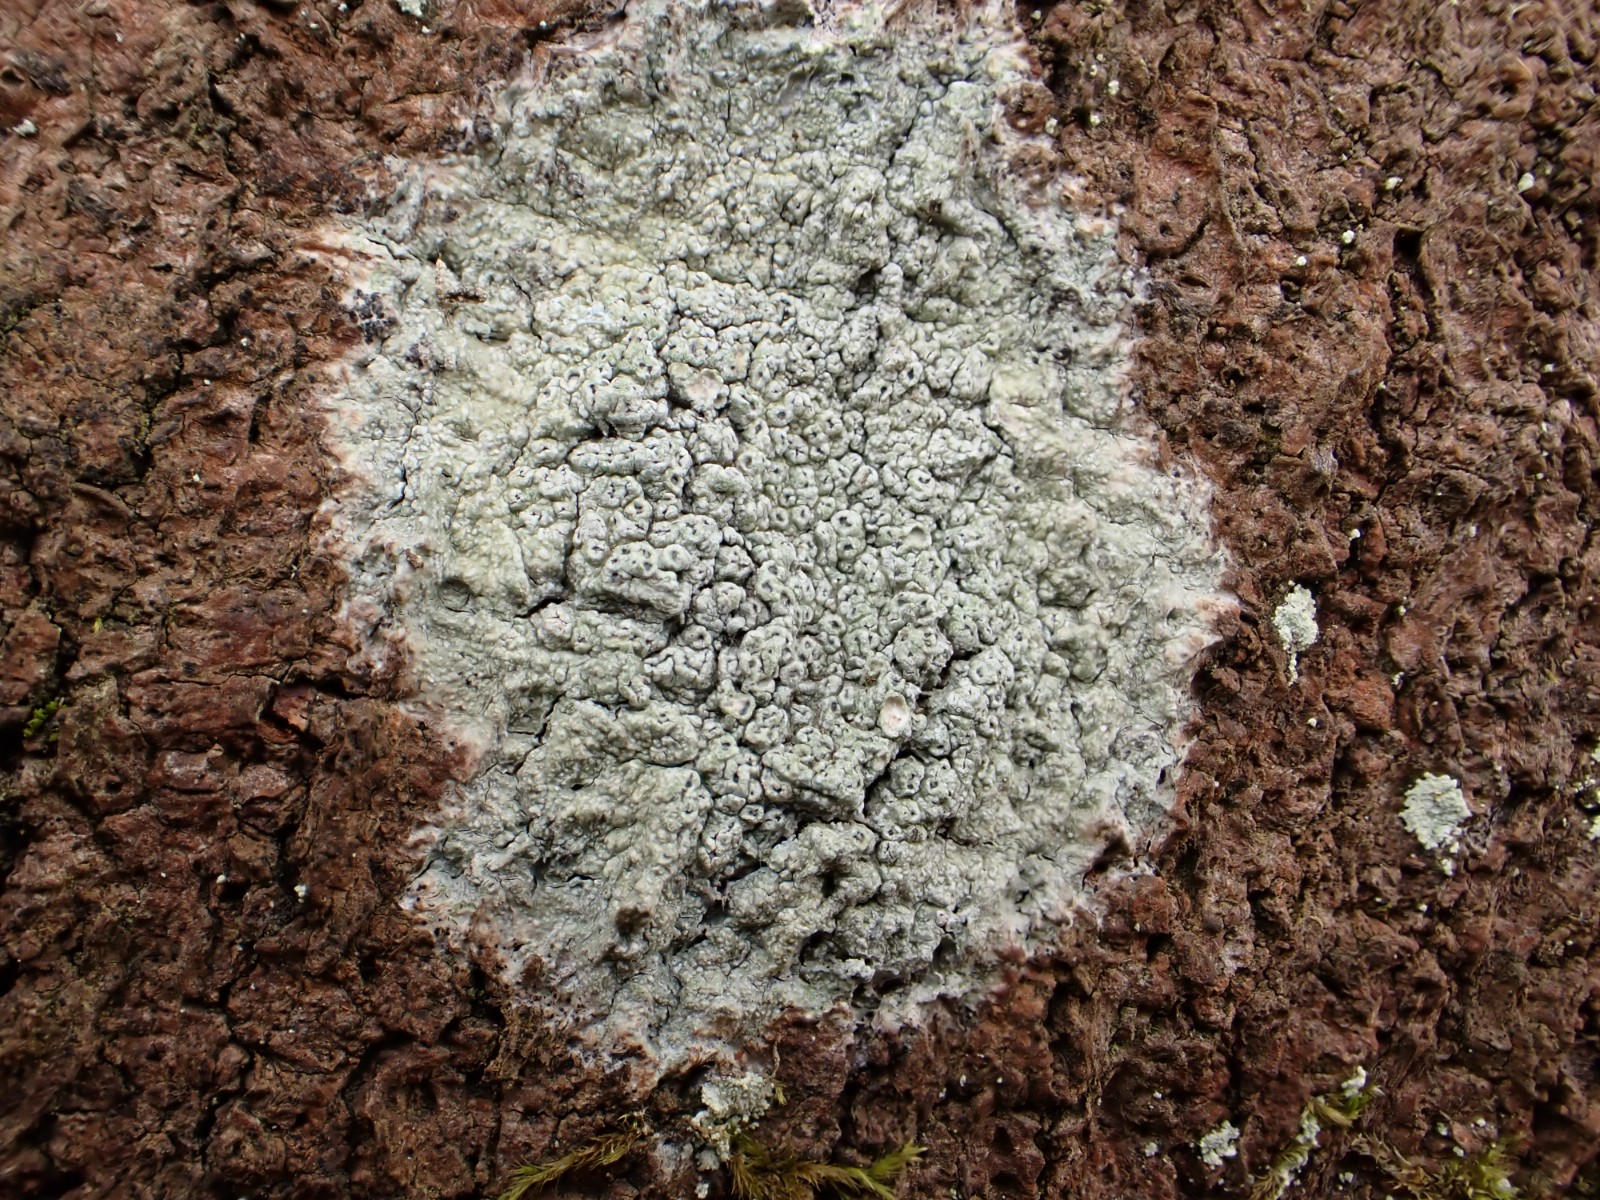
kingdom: Fungi
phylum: Ascomycota
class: Lecanoromycetes
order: Pertusariales
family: Pertusariaceae
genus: Pertusaria
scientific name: Pertusaria hymenea
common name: åben prikvortelav
